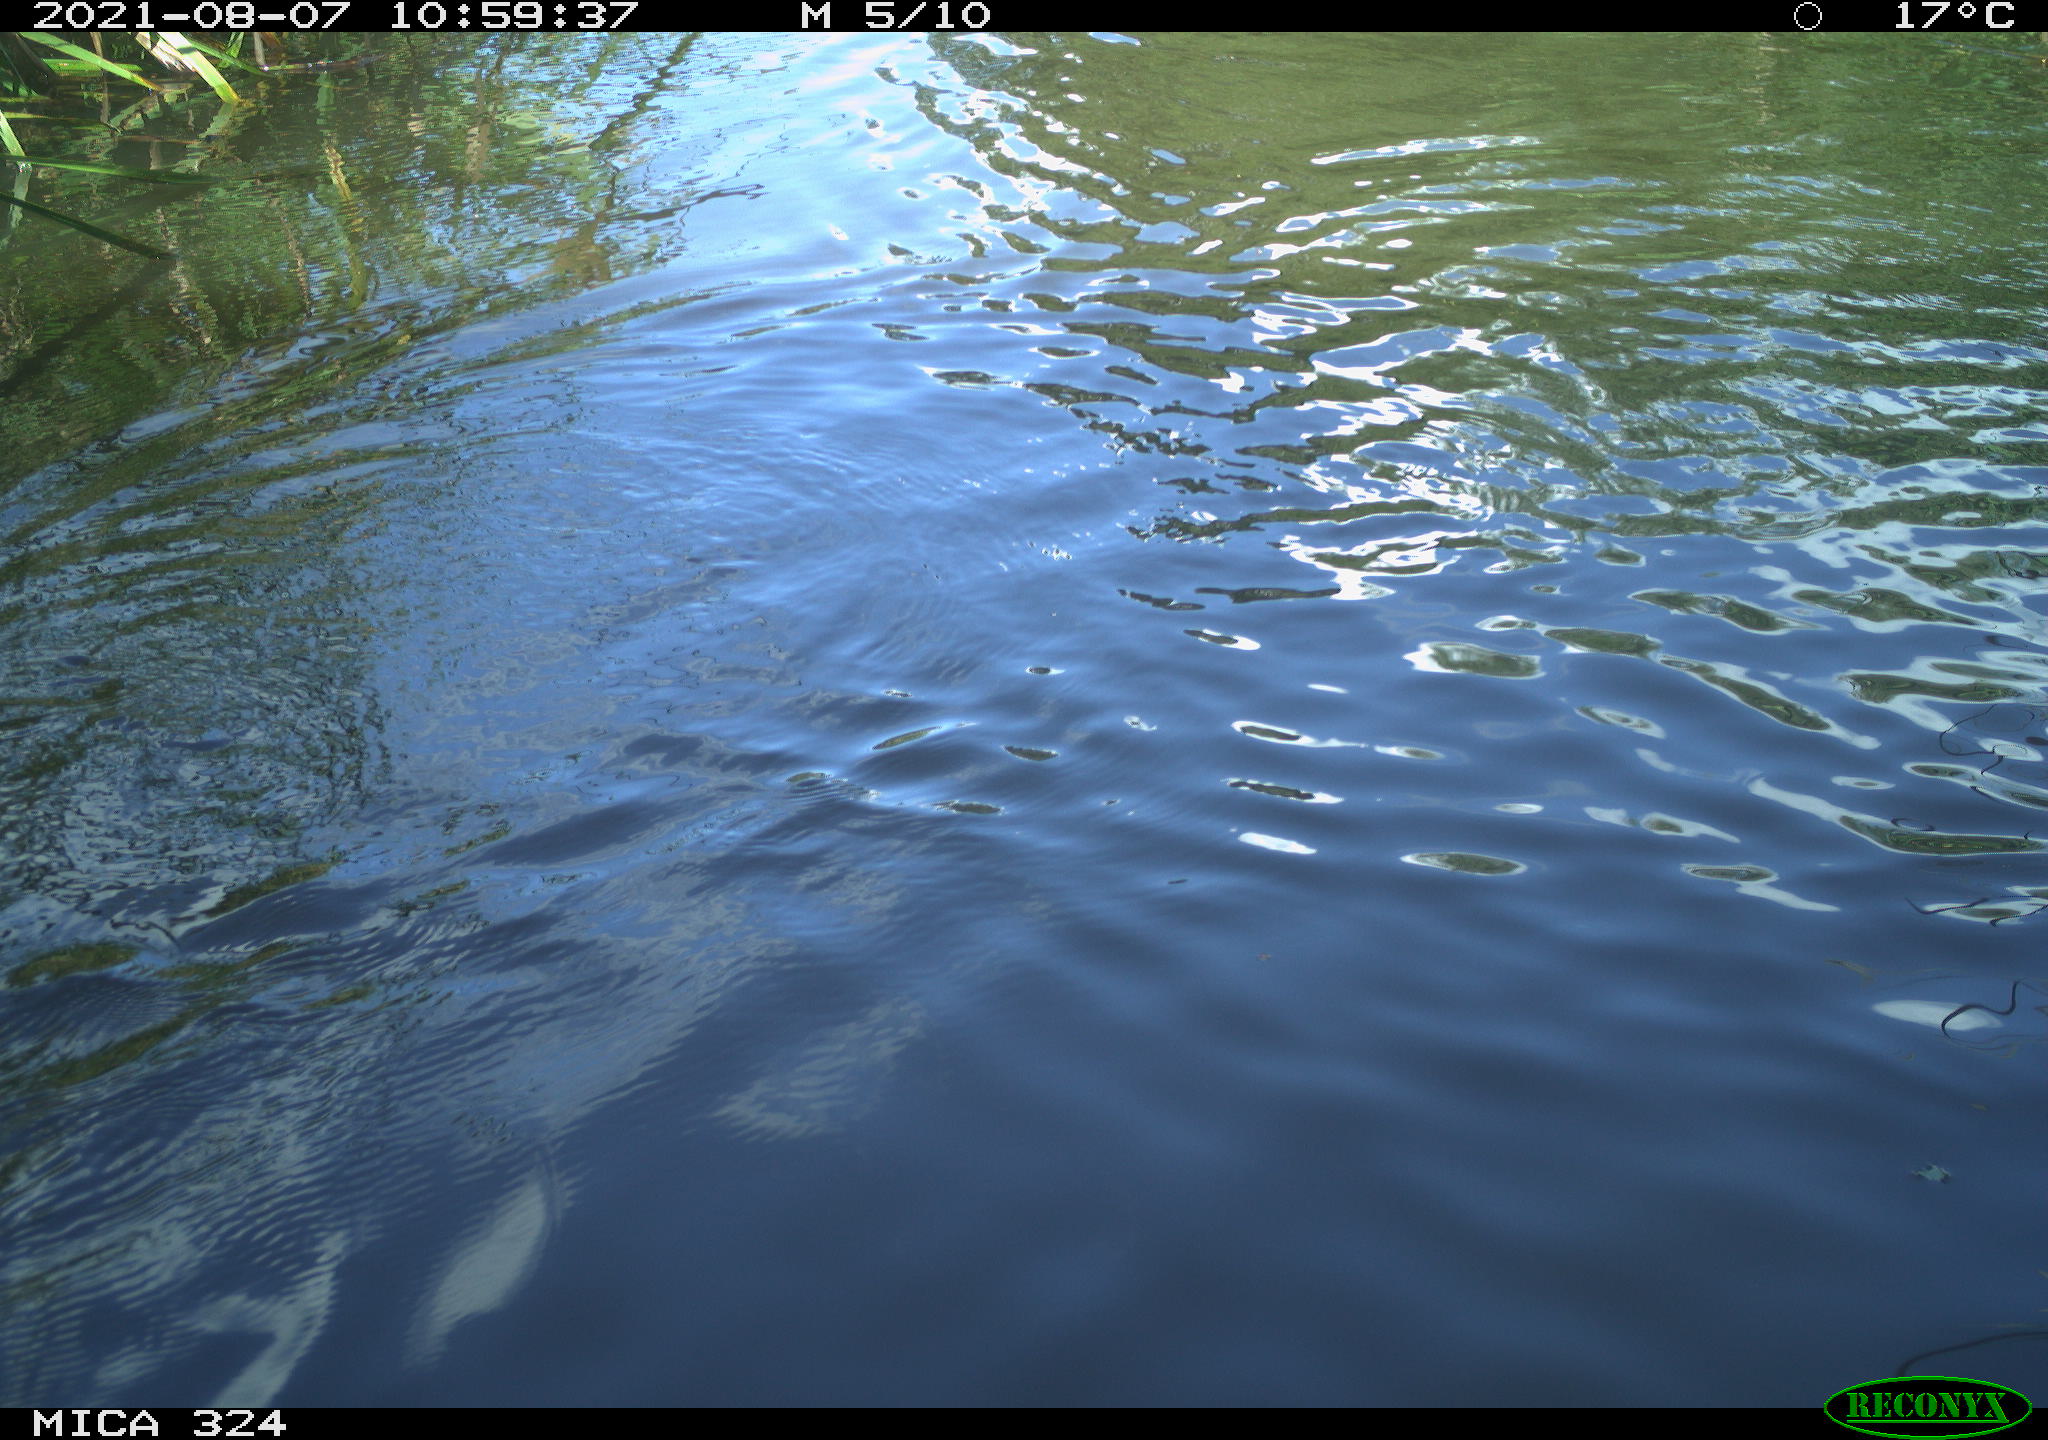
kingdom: Animalia
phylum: Chordata
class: Mammalia
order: Rodentia
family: Cricetidae
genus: Ondatra
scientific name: Ondatra zibethicus
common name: Muskrat
